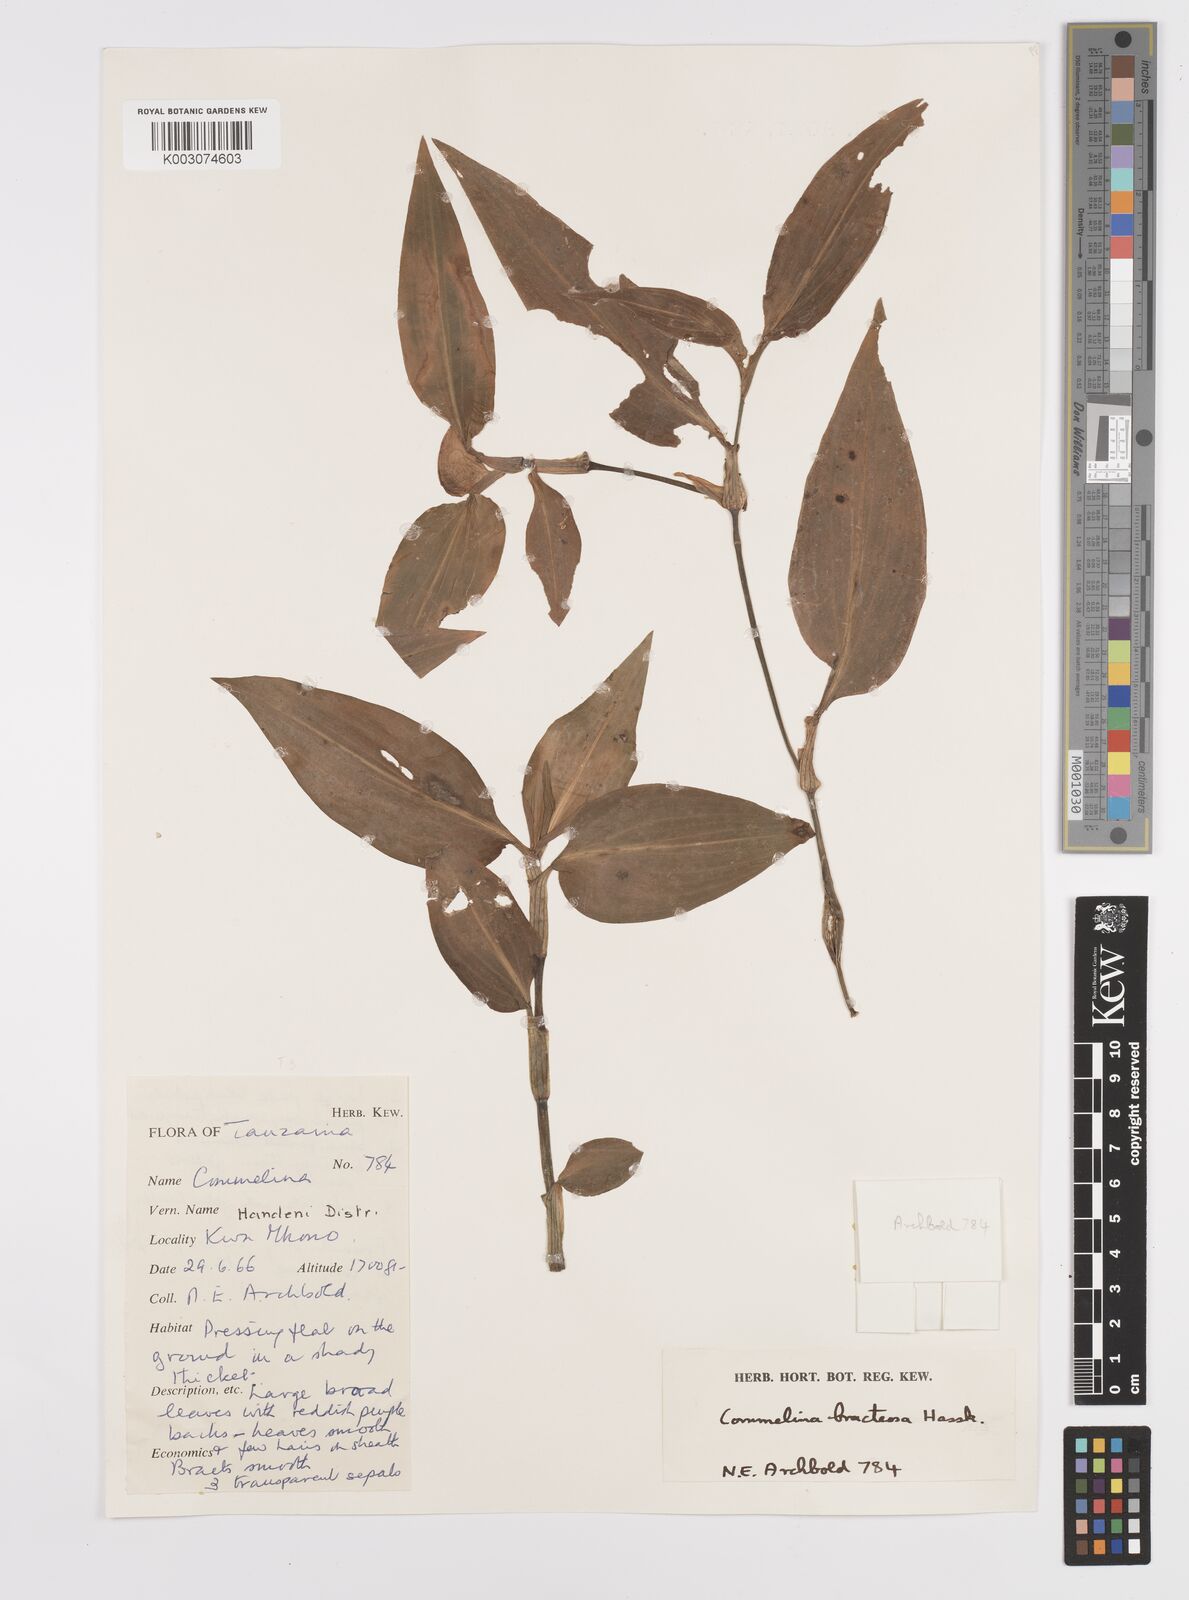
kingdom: Plantae
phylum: Tracheophyta
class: Liliopsida
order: Commelinales
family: Commelinaceae
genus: Commelina
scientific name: Commelina erecta
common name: Blousel blommetjie
